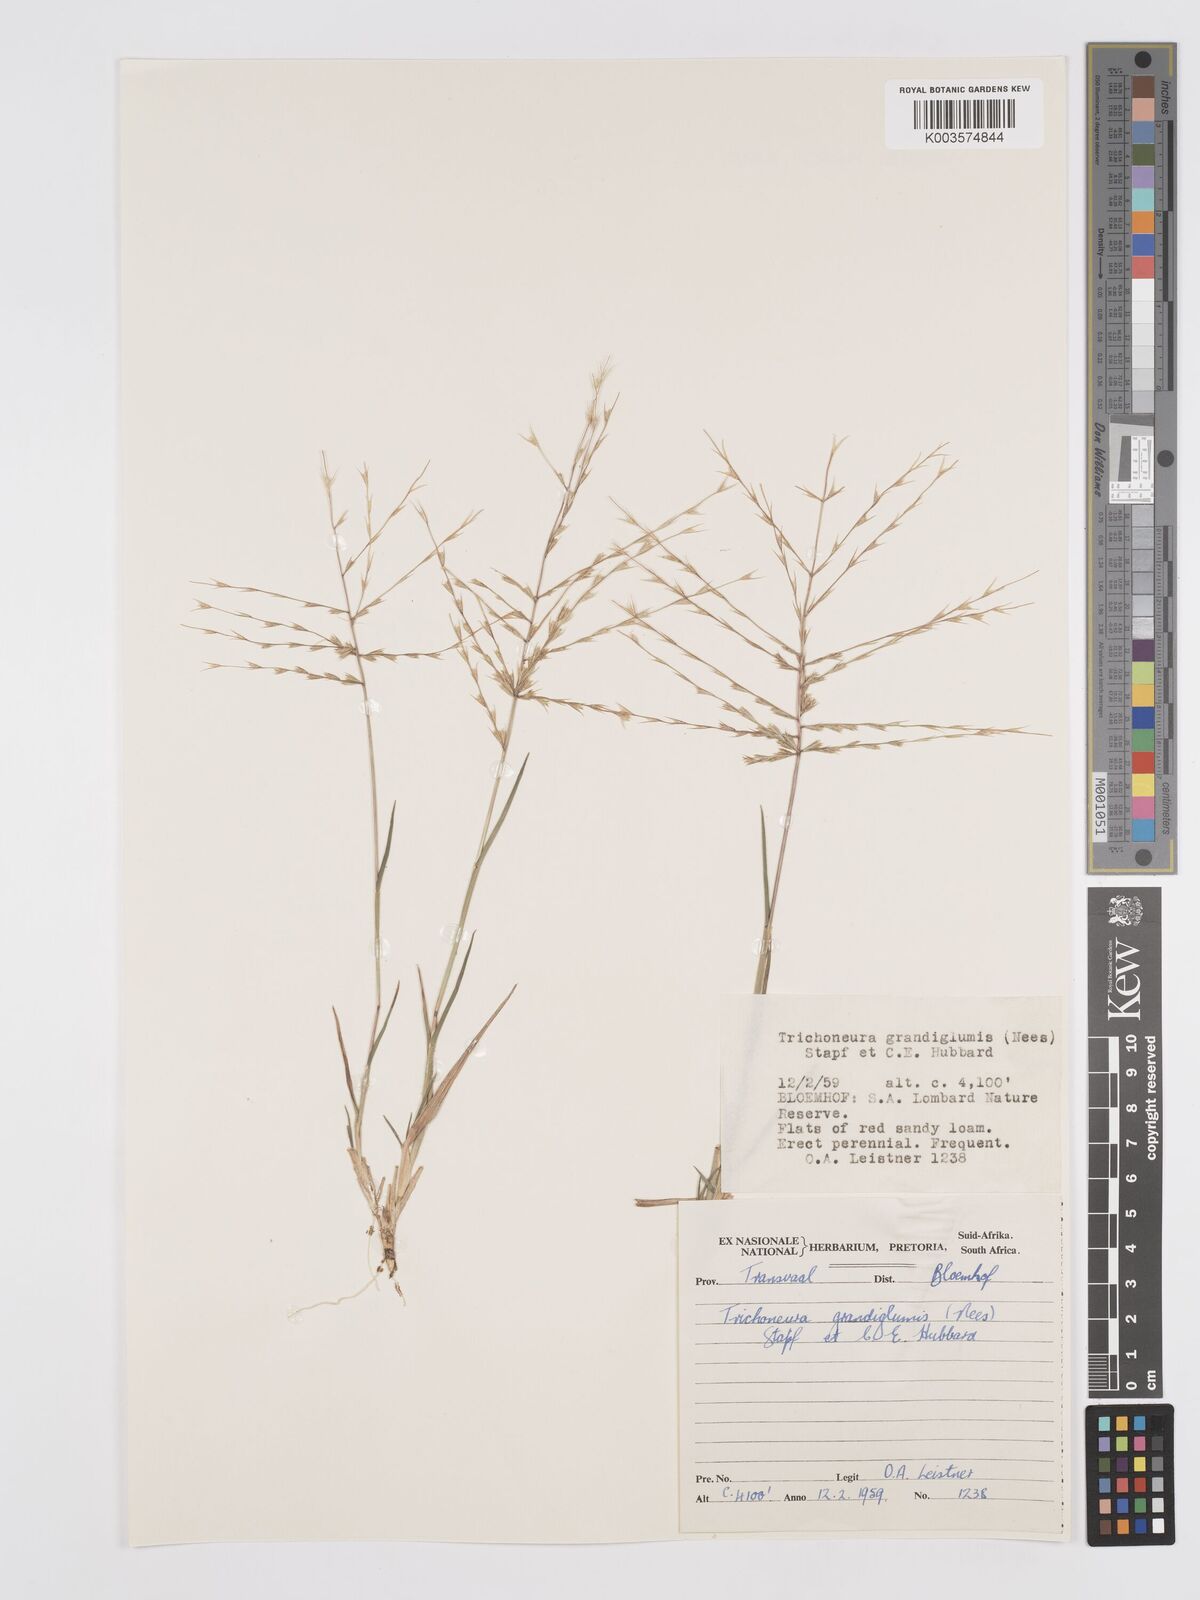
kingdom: Plantae
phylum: Tracheophyta
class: Liliopsida
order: Poales
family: Poaceae
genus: Trichoneura
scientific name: Trichoneura grandiglumis
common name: Rolling grass
